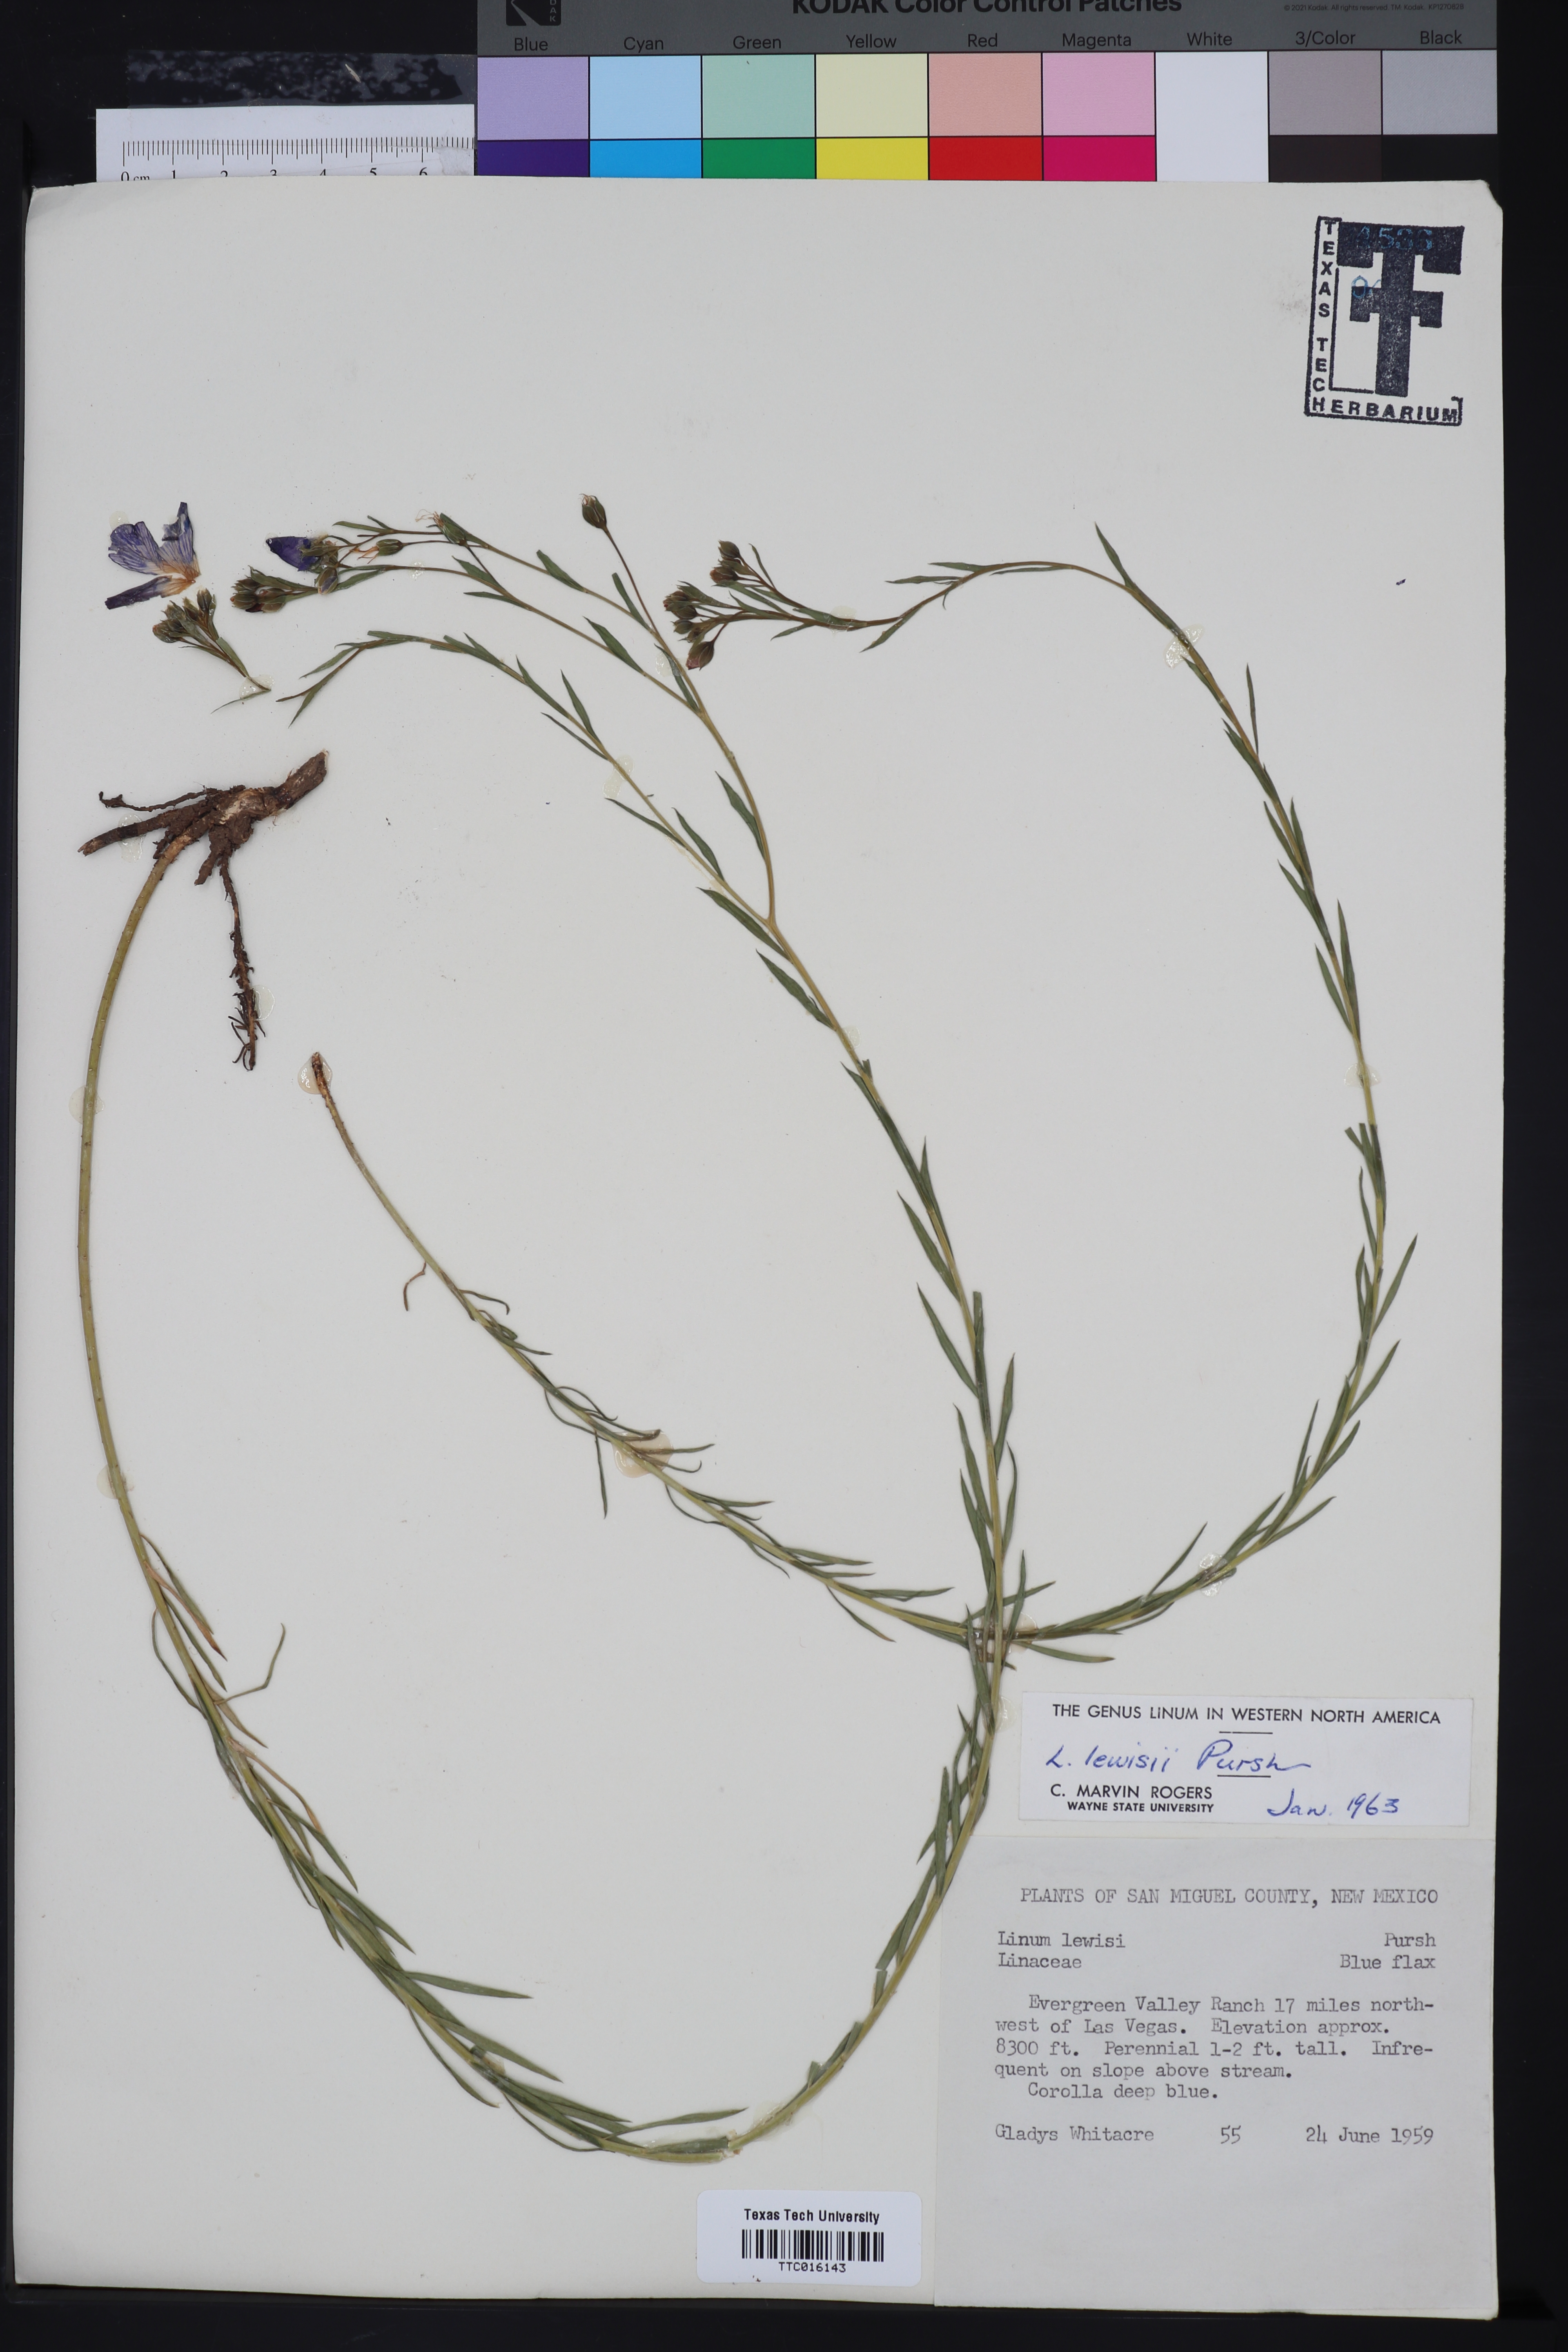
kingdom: Plantae
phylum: Tracheophyta
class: Magnoliopsida
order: Malpighiales
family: Linaceae
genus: Linum
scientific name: Linum lewisii
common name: Prairie flax
